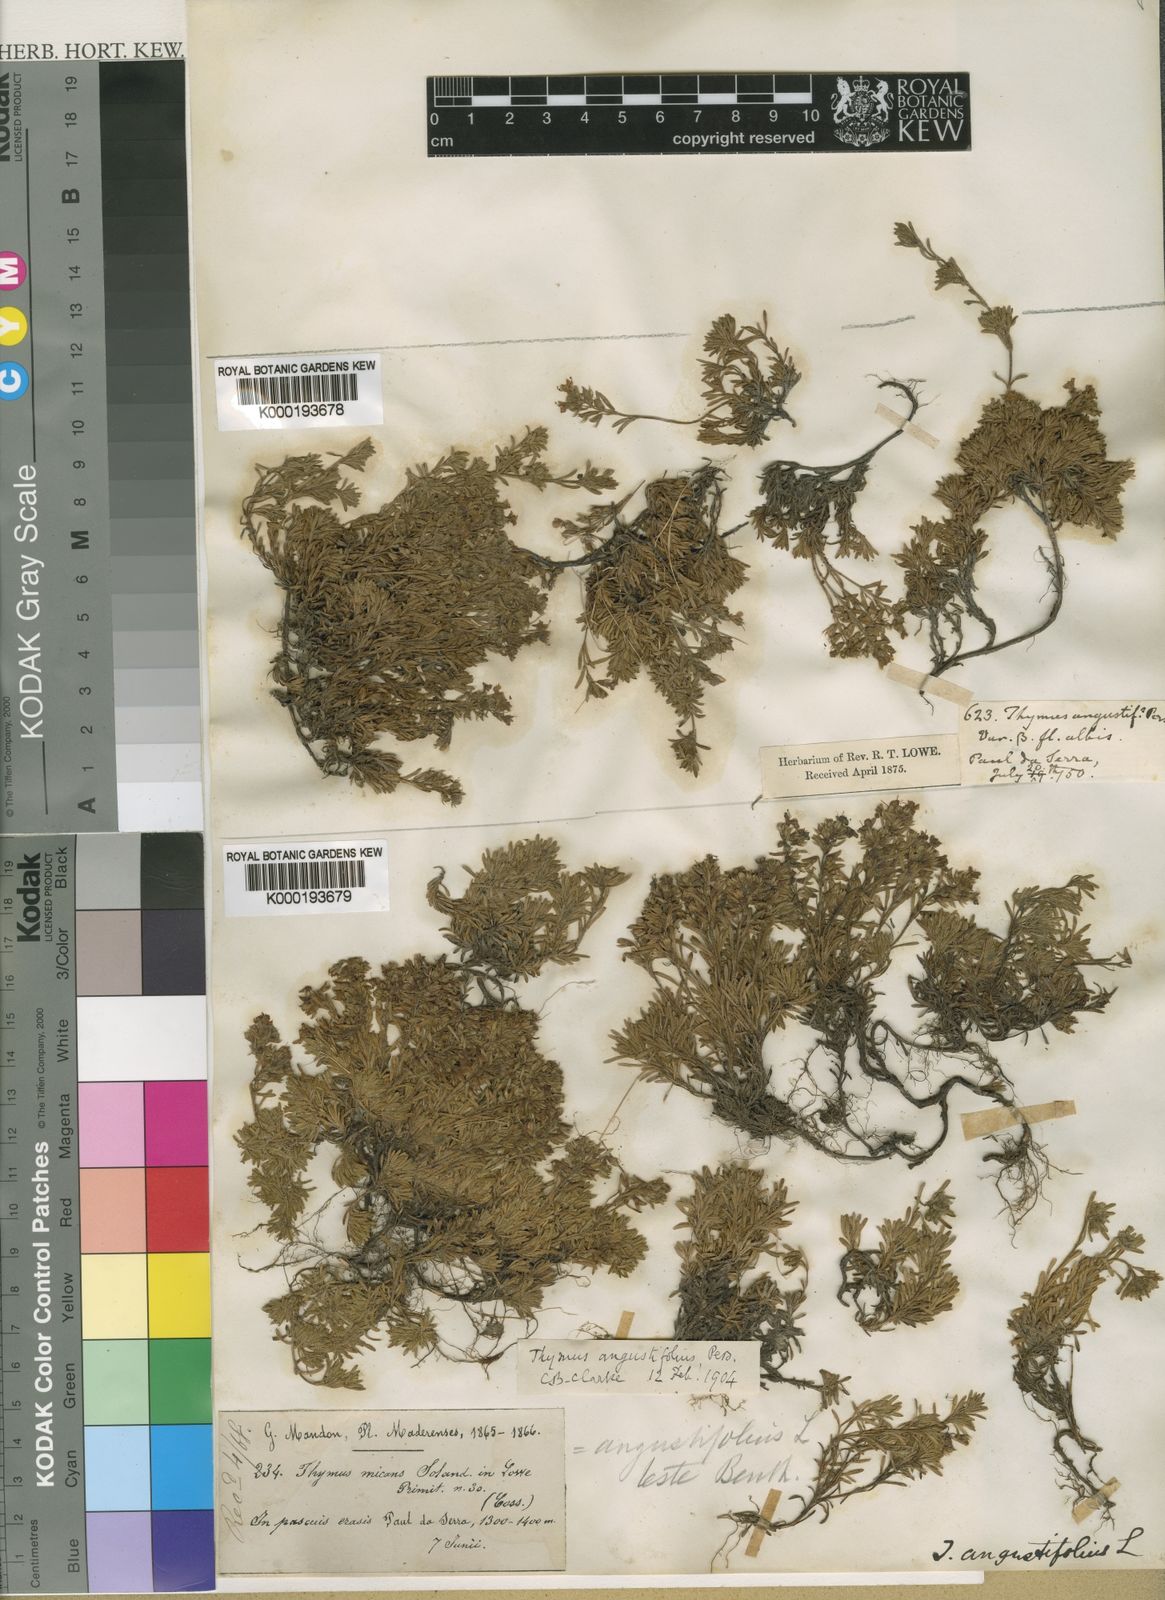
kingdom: Plantae
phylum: Tracheophyta
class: Magnoliopsida
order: Lamiales
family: Lamiaceae
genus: Thymus
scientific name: Thymus serpyllum
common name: Breckland thyme
